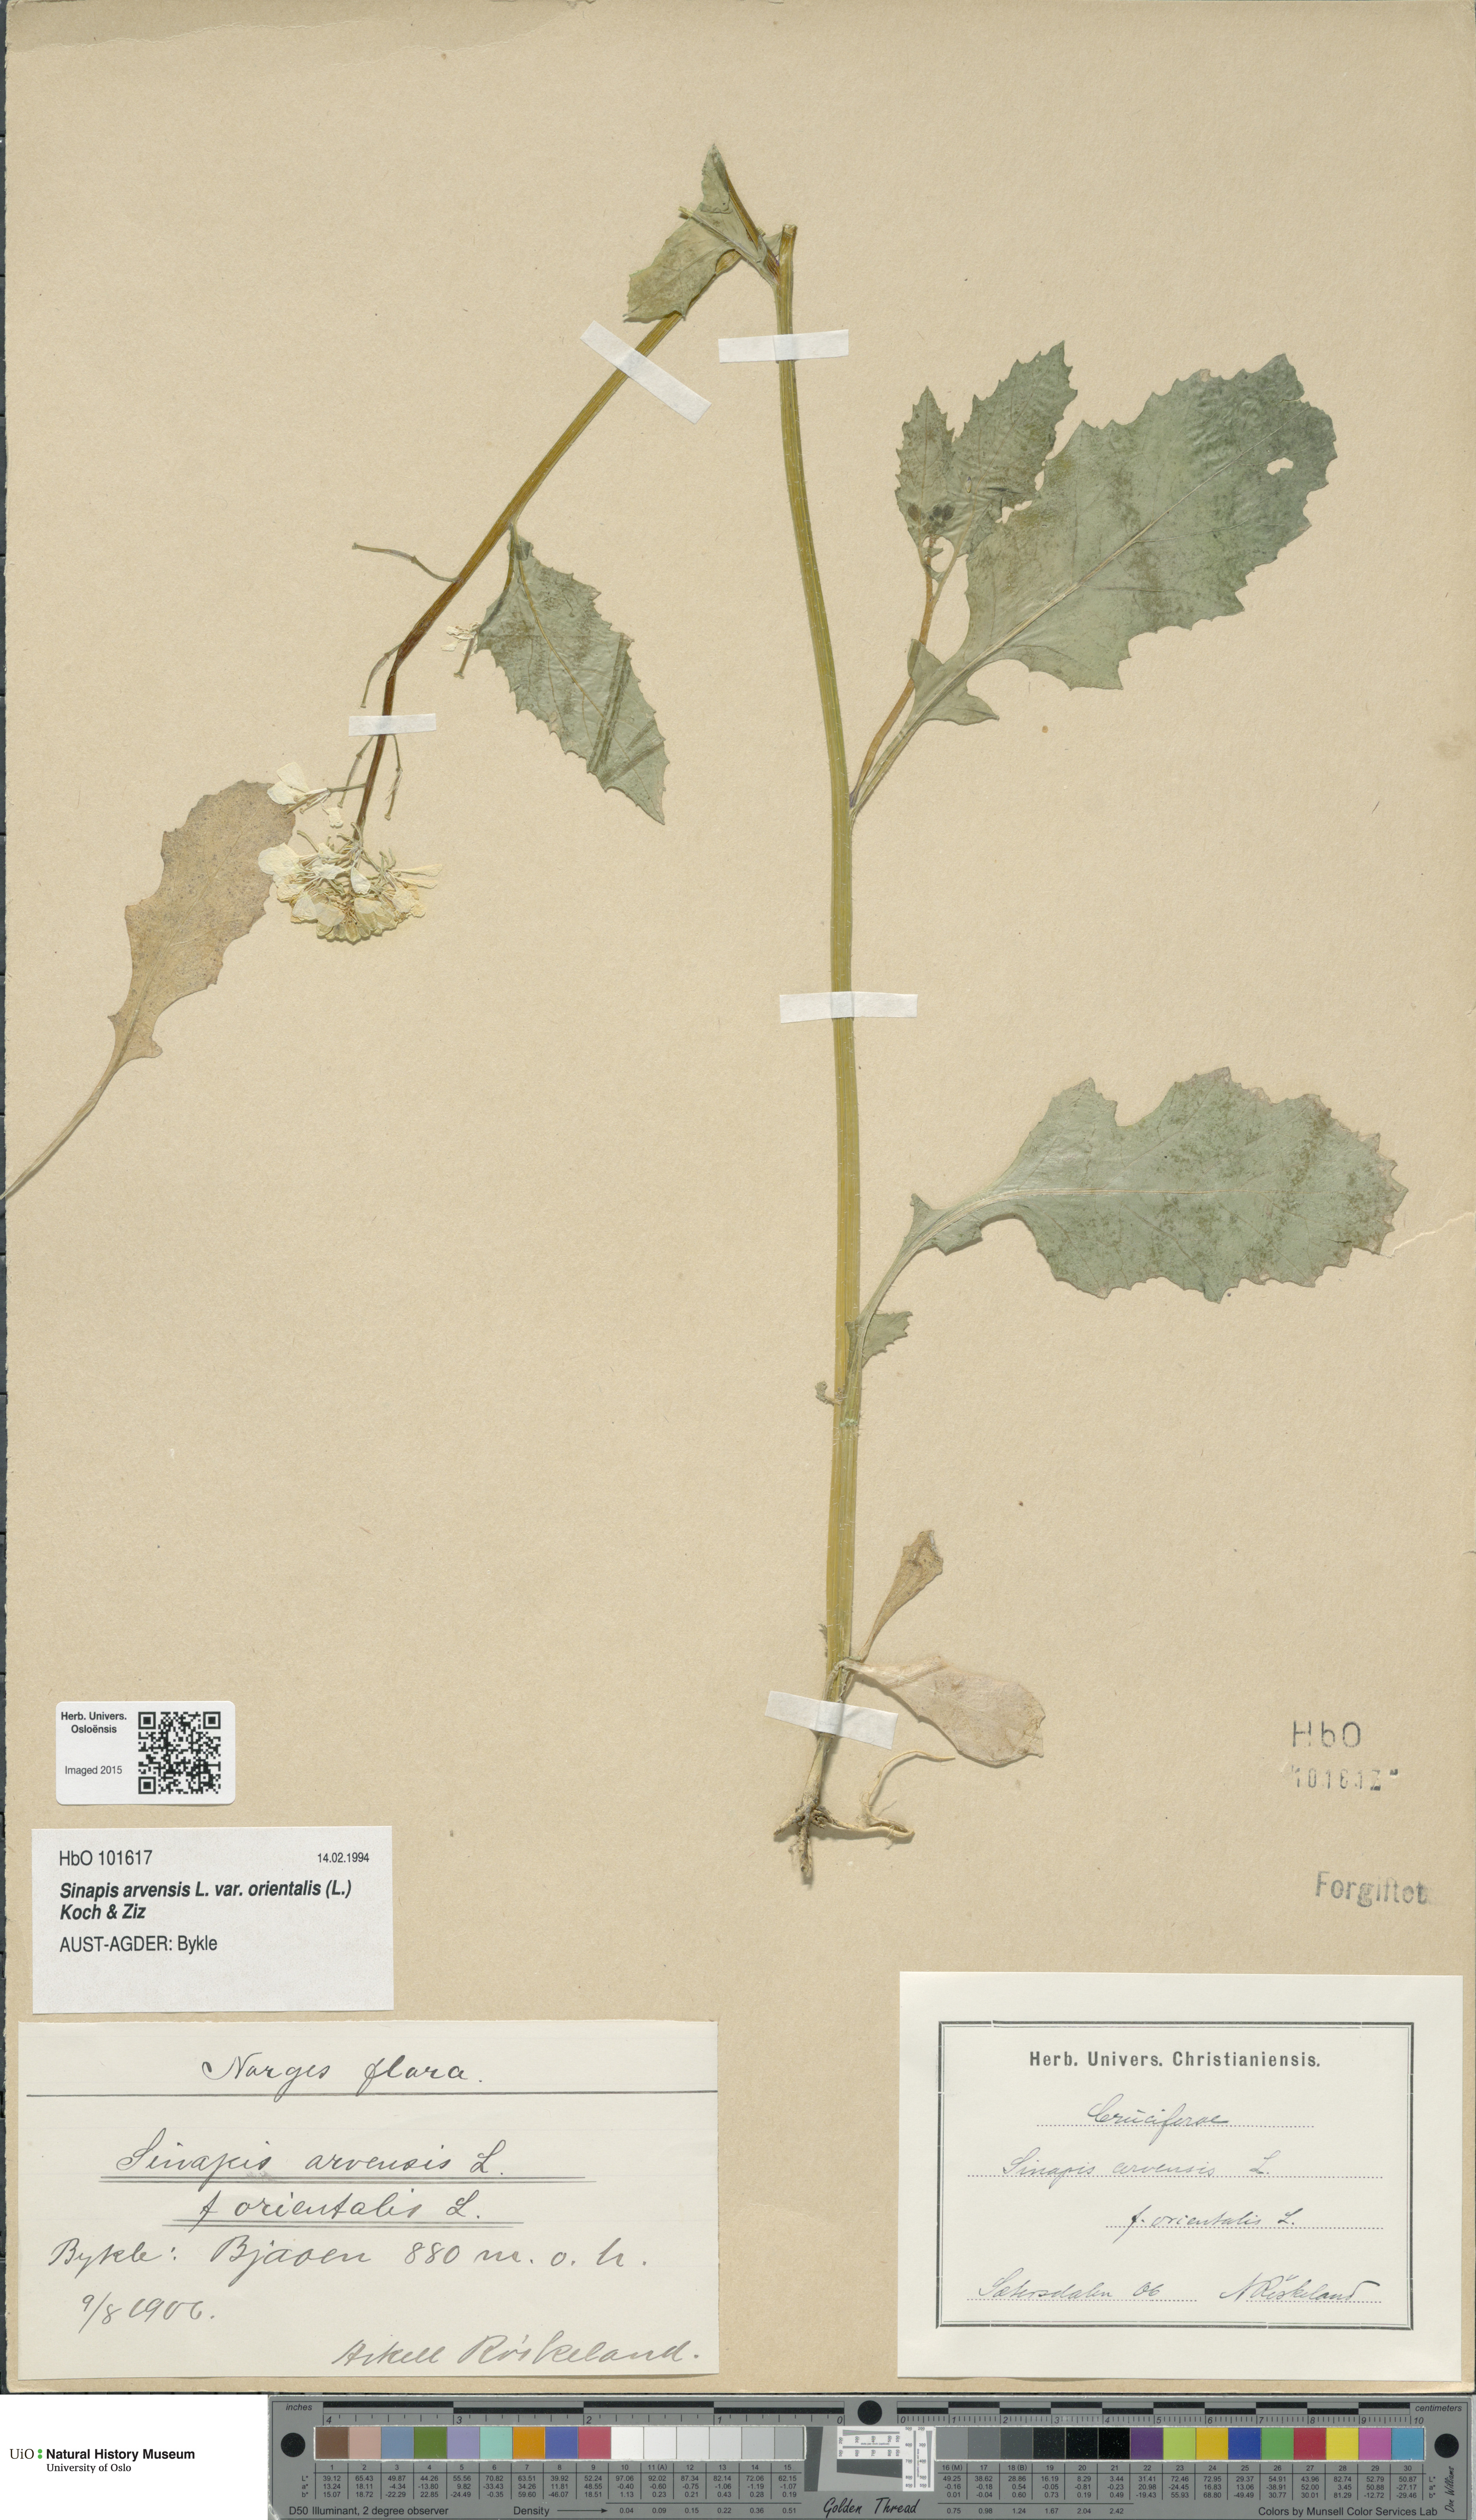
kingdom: Plantae
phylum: Tracheophyta
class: Magnoliopsida
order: Brassicales
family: Brassicaceae
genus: Sinapis
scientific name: Sinapis arvensis
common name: Charlock
